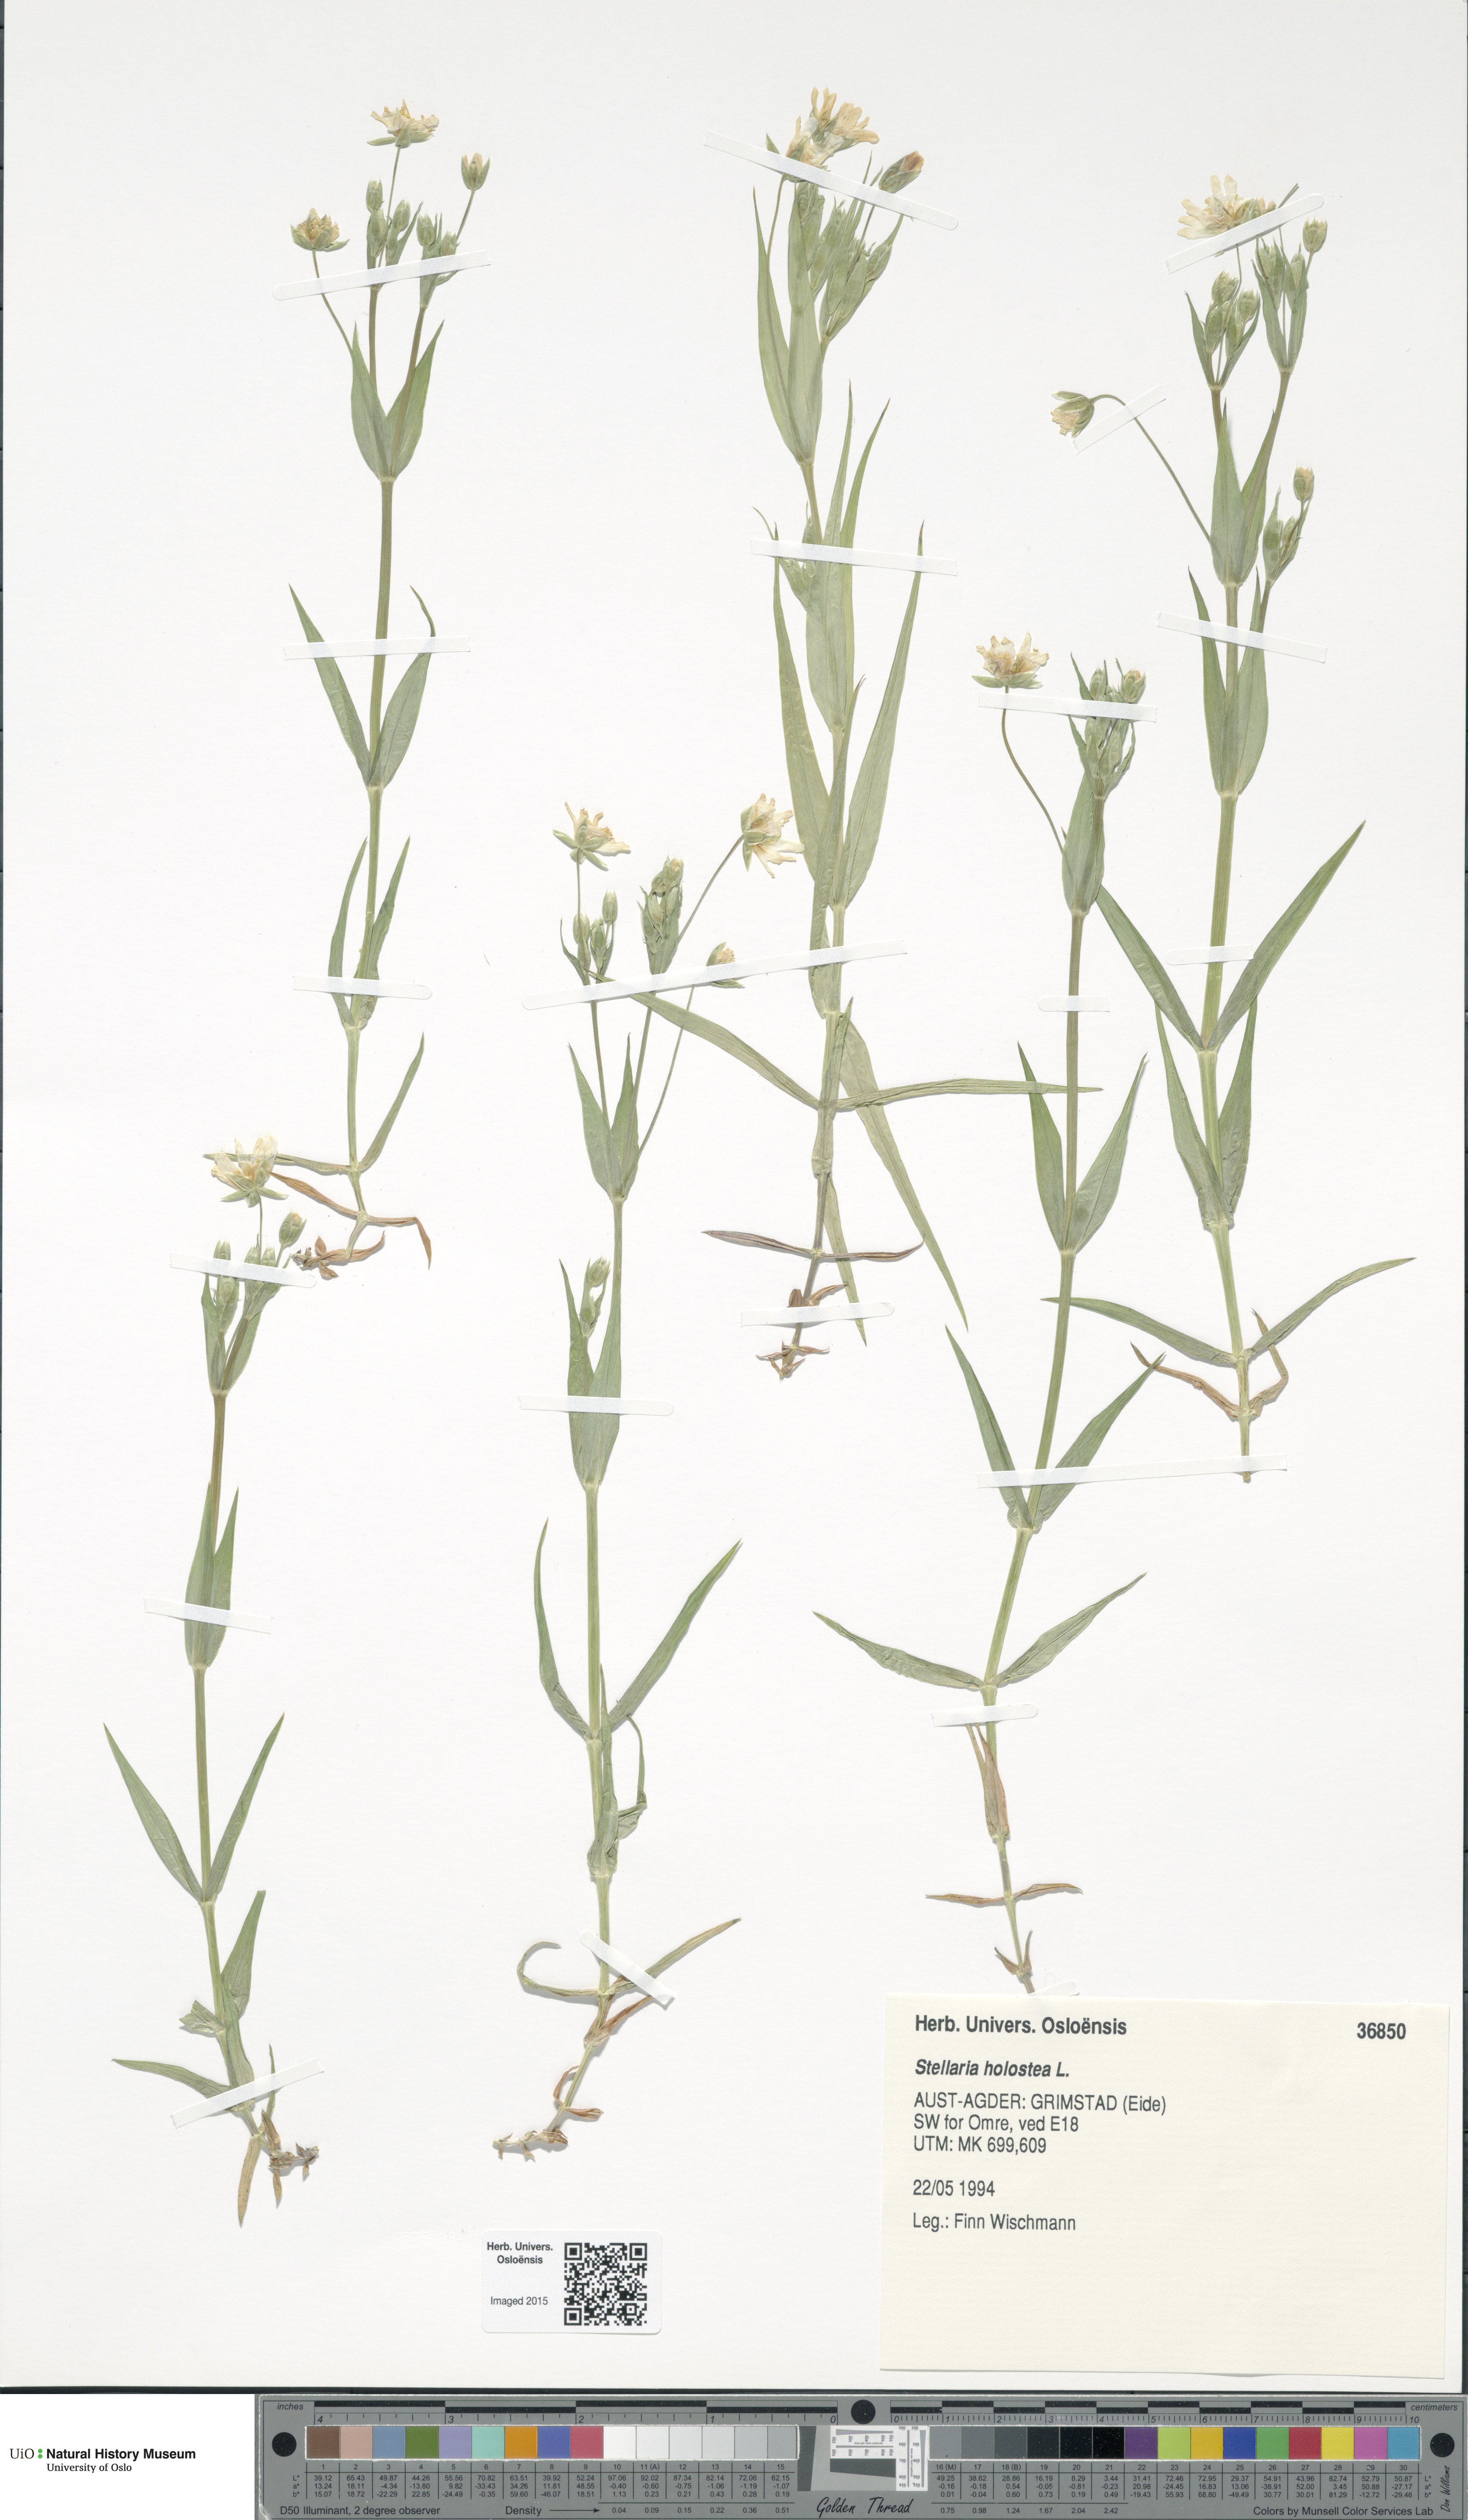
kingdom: Plantae
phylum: Tracheophyta
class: Magnoliopsida
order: Caryophyllales
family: Caryophyllaceae
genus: Rabelera
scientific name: Rabelera holostea
